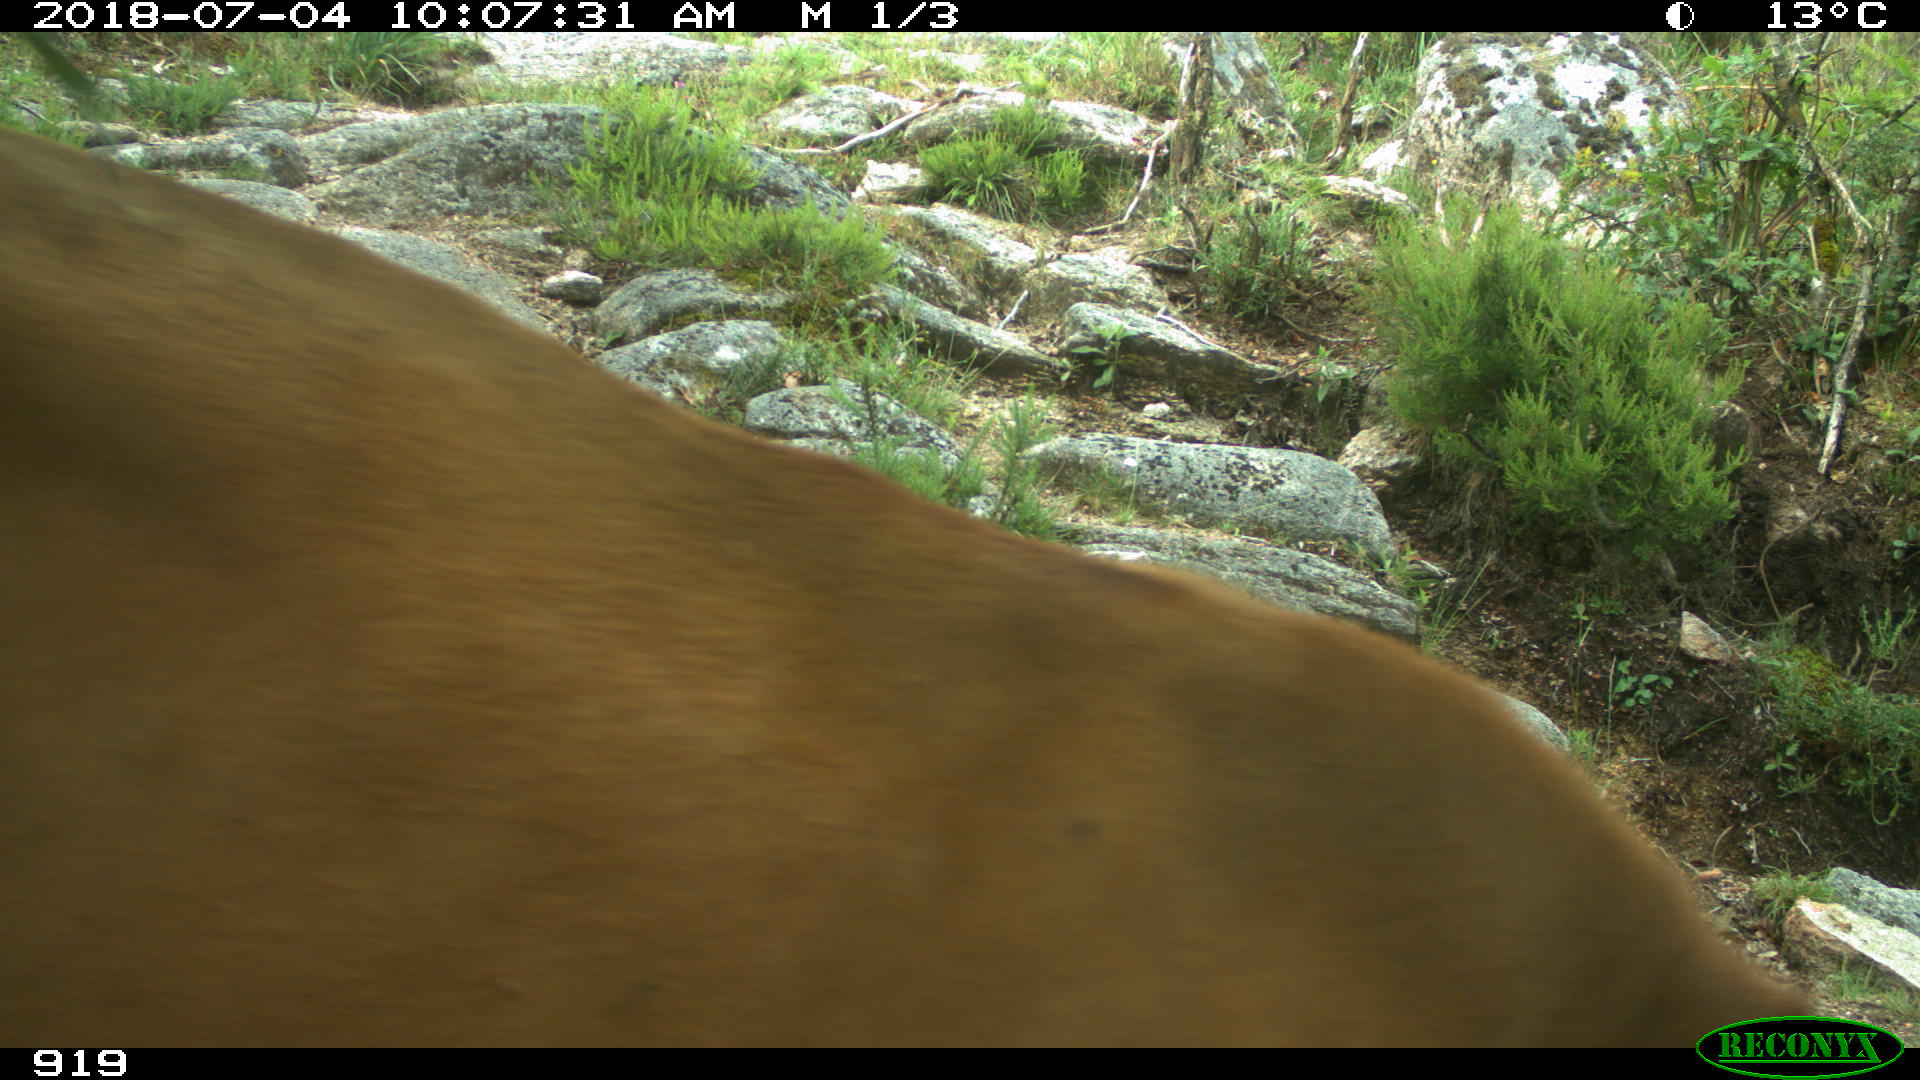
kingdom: Animalia
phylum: Chordata
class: Mammalia
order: Artiodactyla
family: Bovidae
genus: Bos
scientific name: Bos taurus
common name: Domesticated cattle
